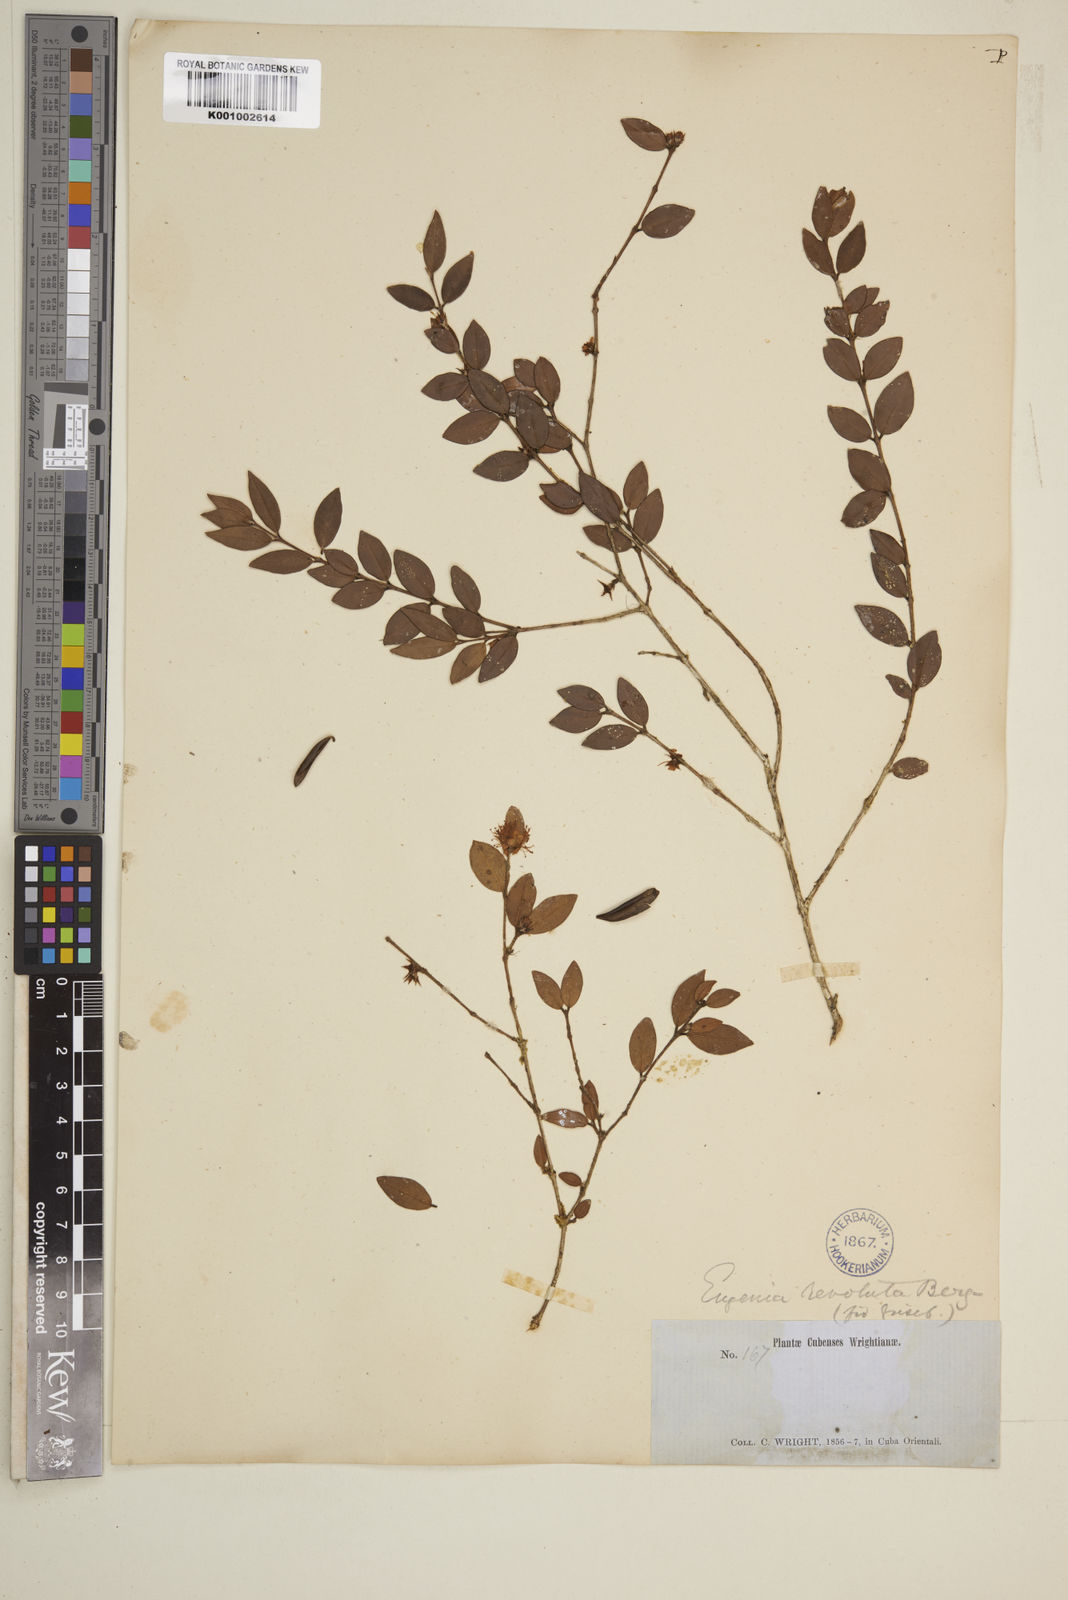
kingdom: Plantae
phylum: Tracheophyta
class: Magnoliopsida
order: Myrtales
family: Myrtaceae
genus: Eugenia
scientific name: Eugenia oxysepala
